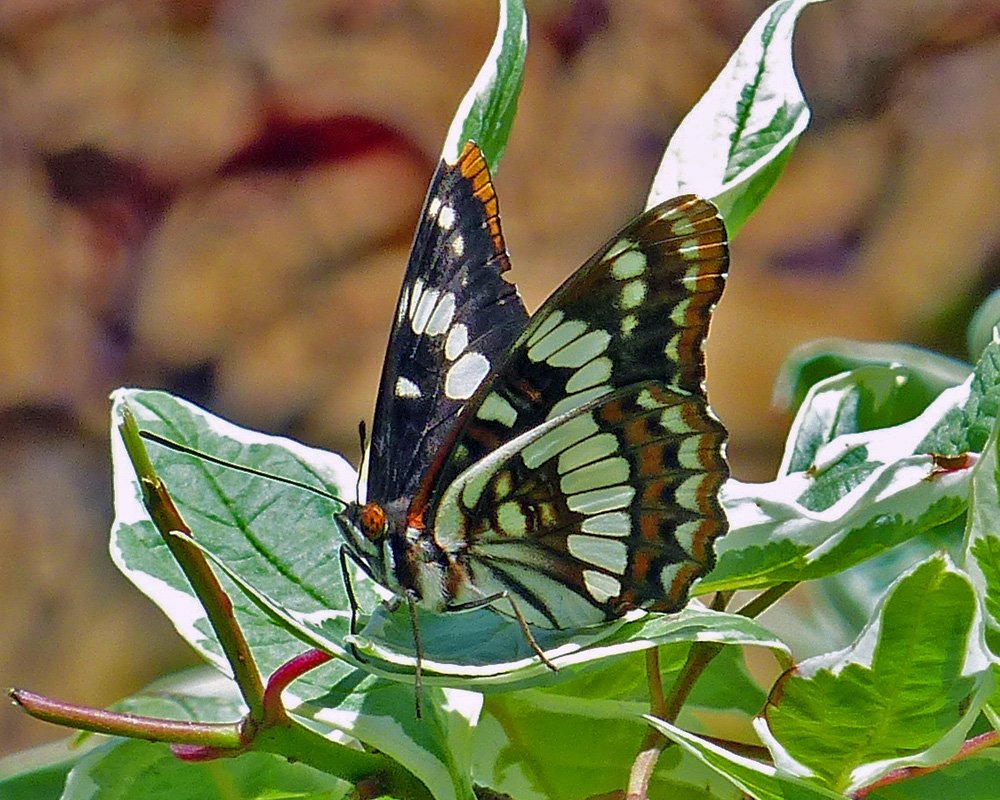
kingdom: Animalia
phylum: Arthropoda
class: Insecta
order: Lepidoptera
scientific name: Lepidoptera
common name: Butterflies
